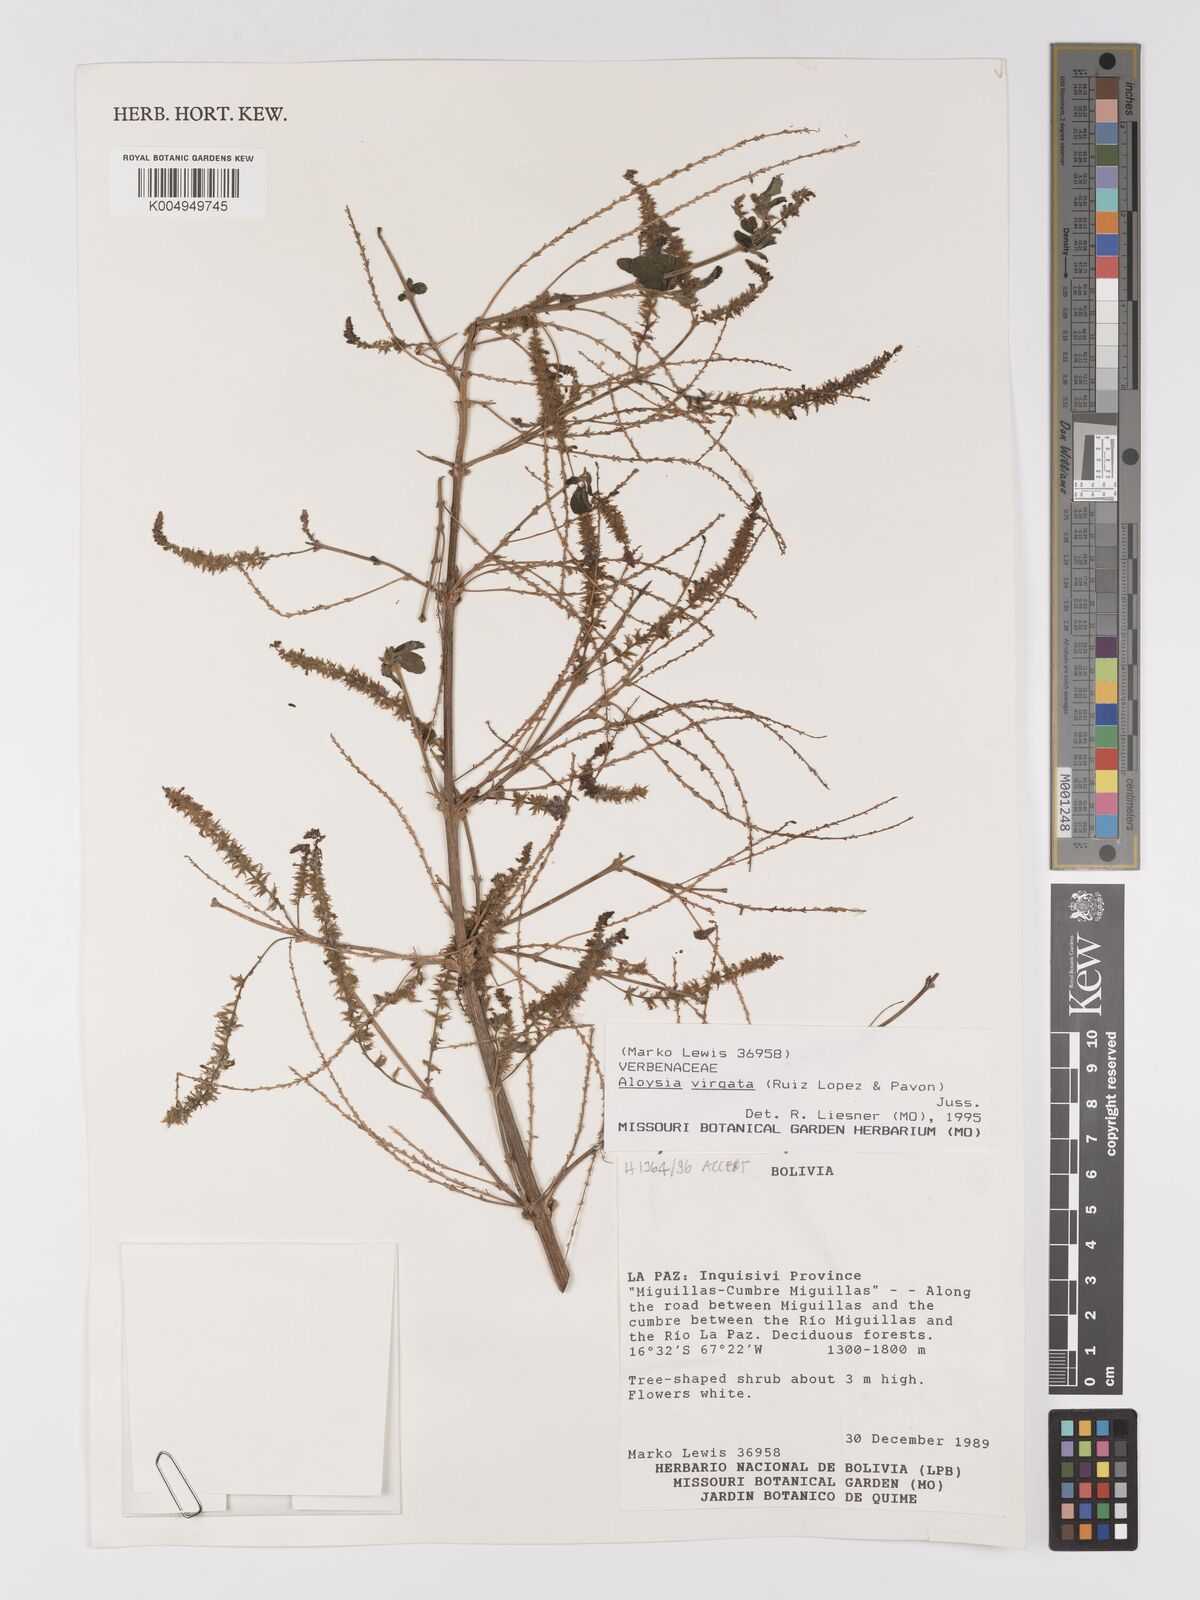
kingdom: Plantae
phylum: Tracheophyta
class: Magnoliopsida
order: Lamiales
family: Verbenaceae
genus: Aloysia
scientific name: Aloysia virgata
